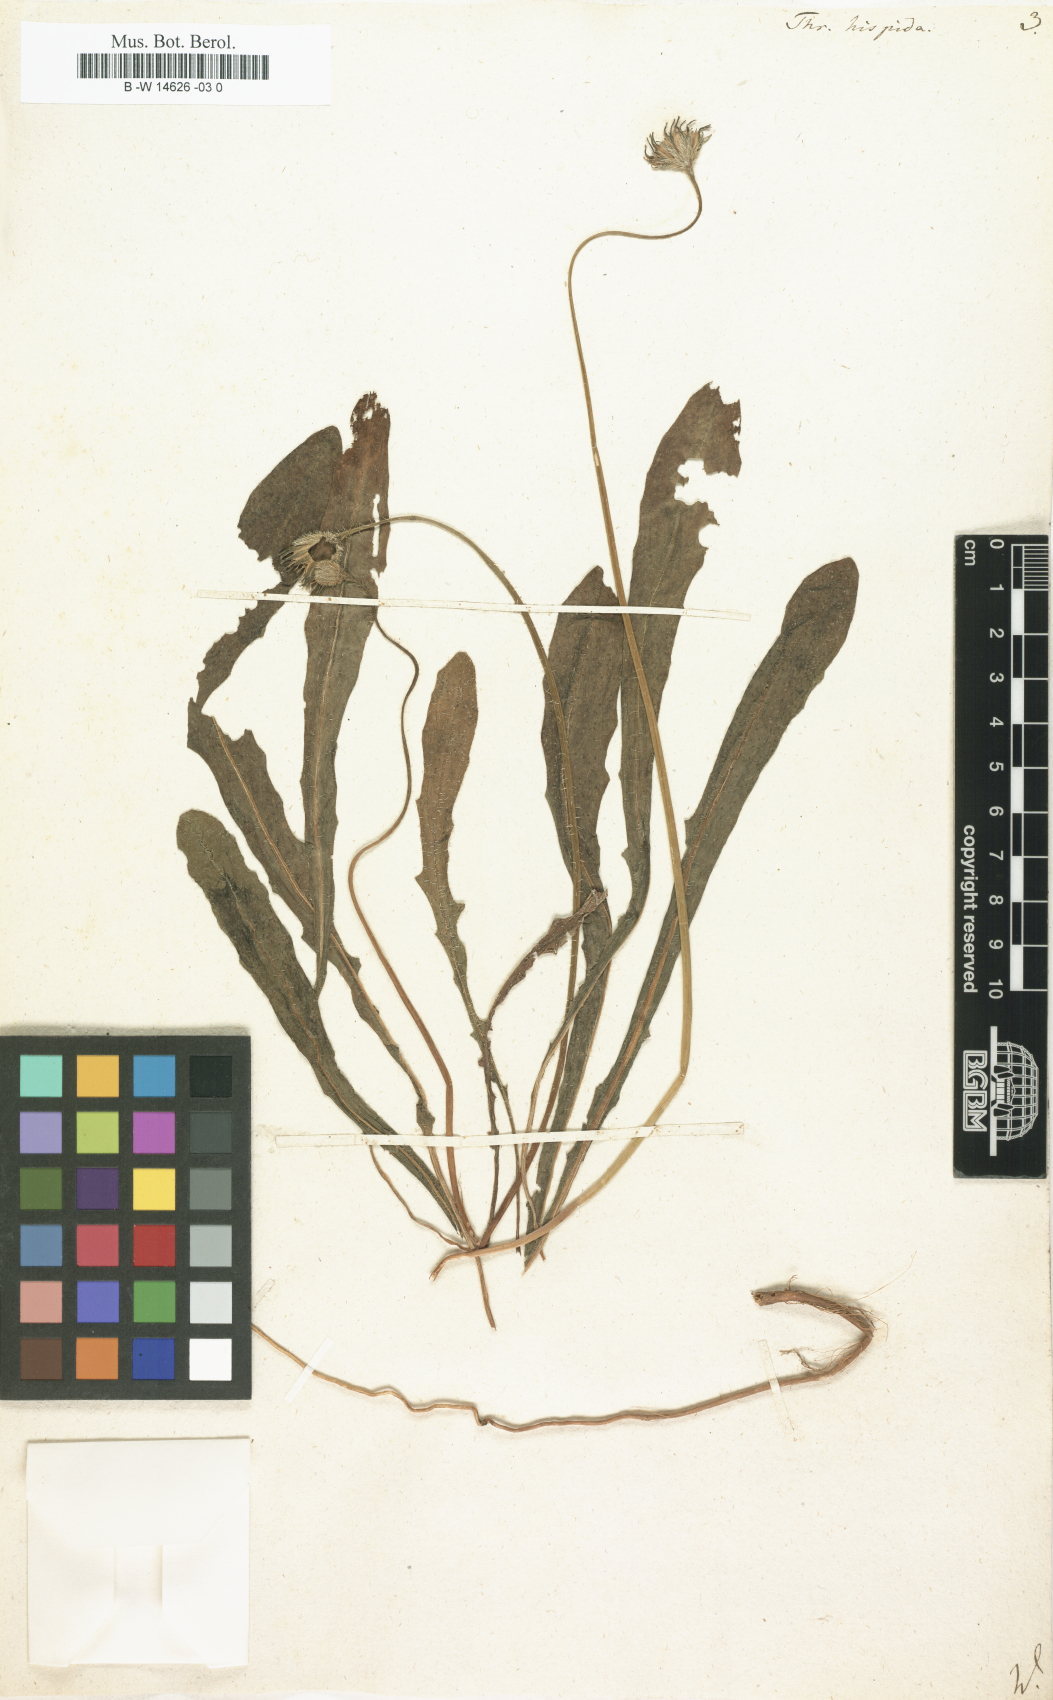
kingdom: Plantae
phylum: Tracheophyta
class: Magnoliopsida
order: Asterales
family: Asteraceae
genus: Thrincia
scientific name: Thrincia hispida
